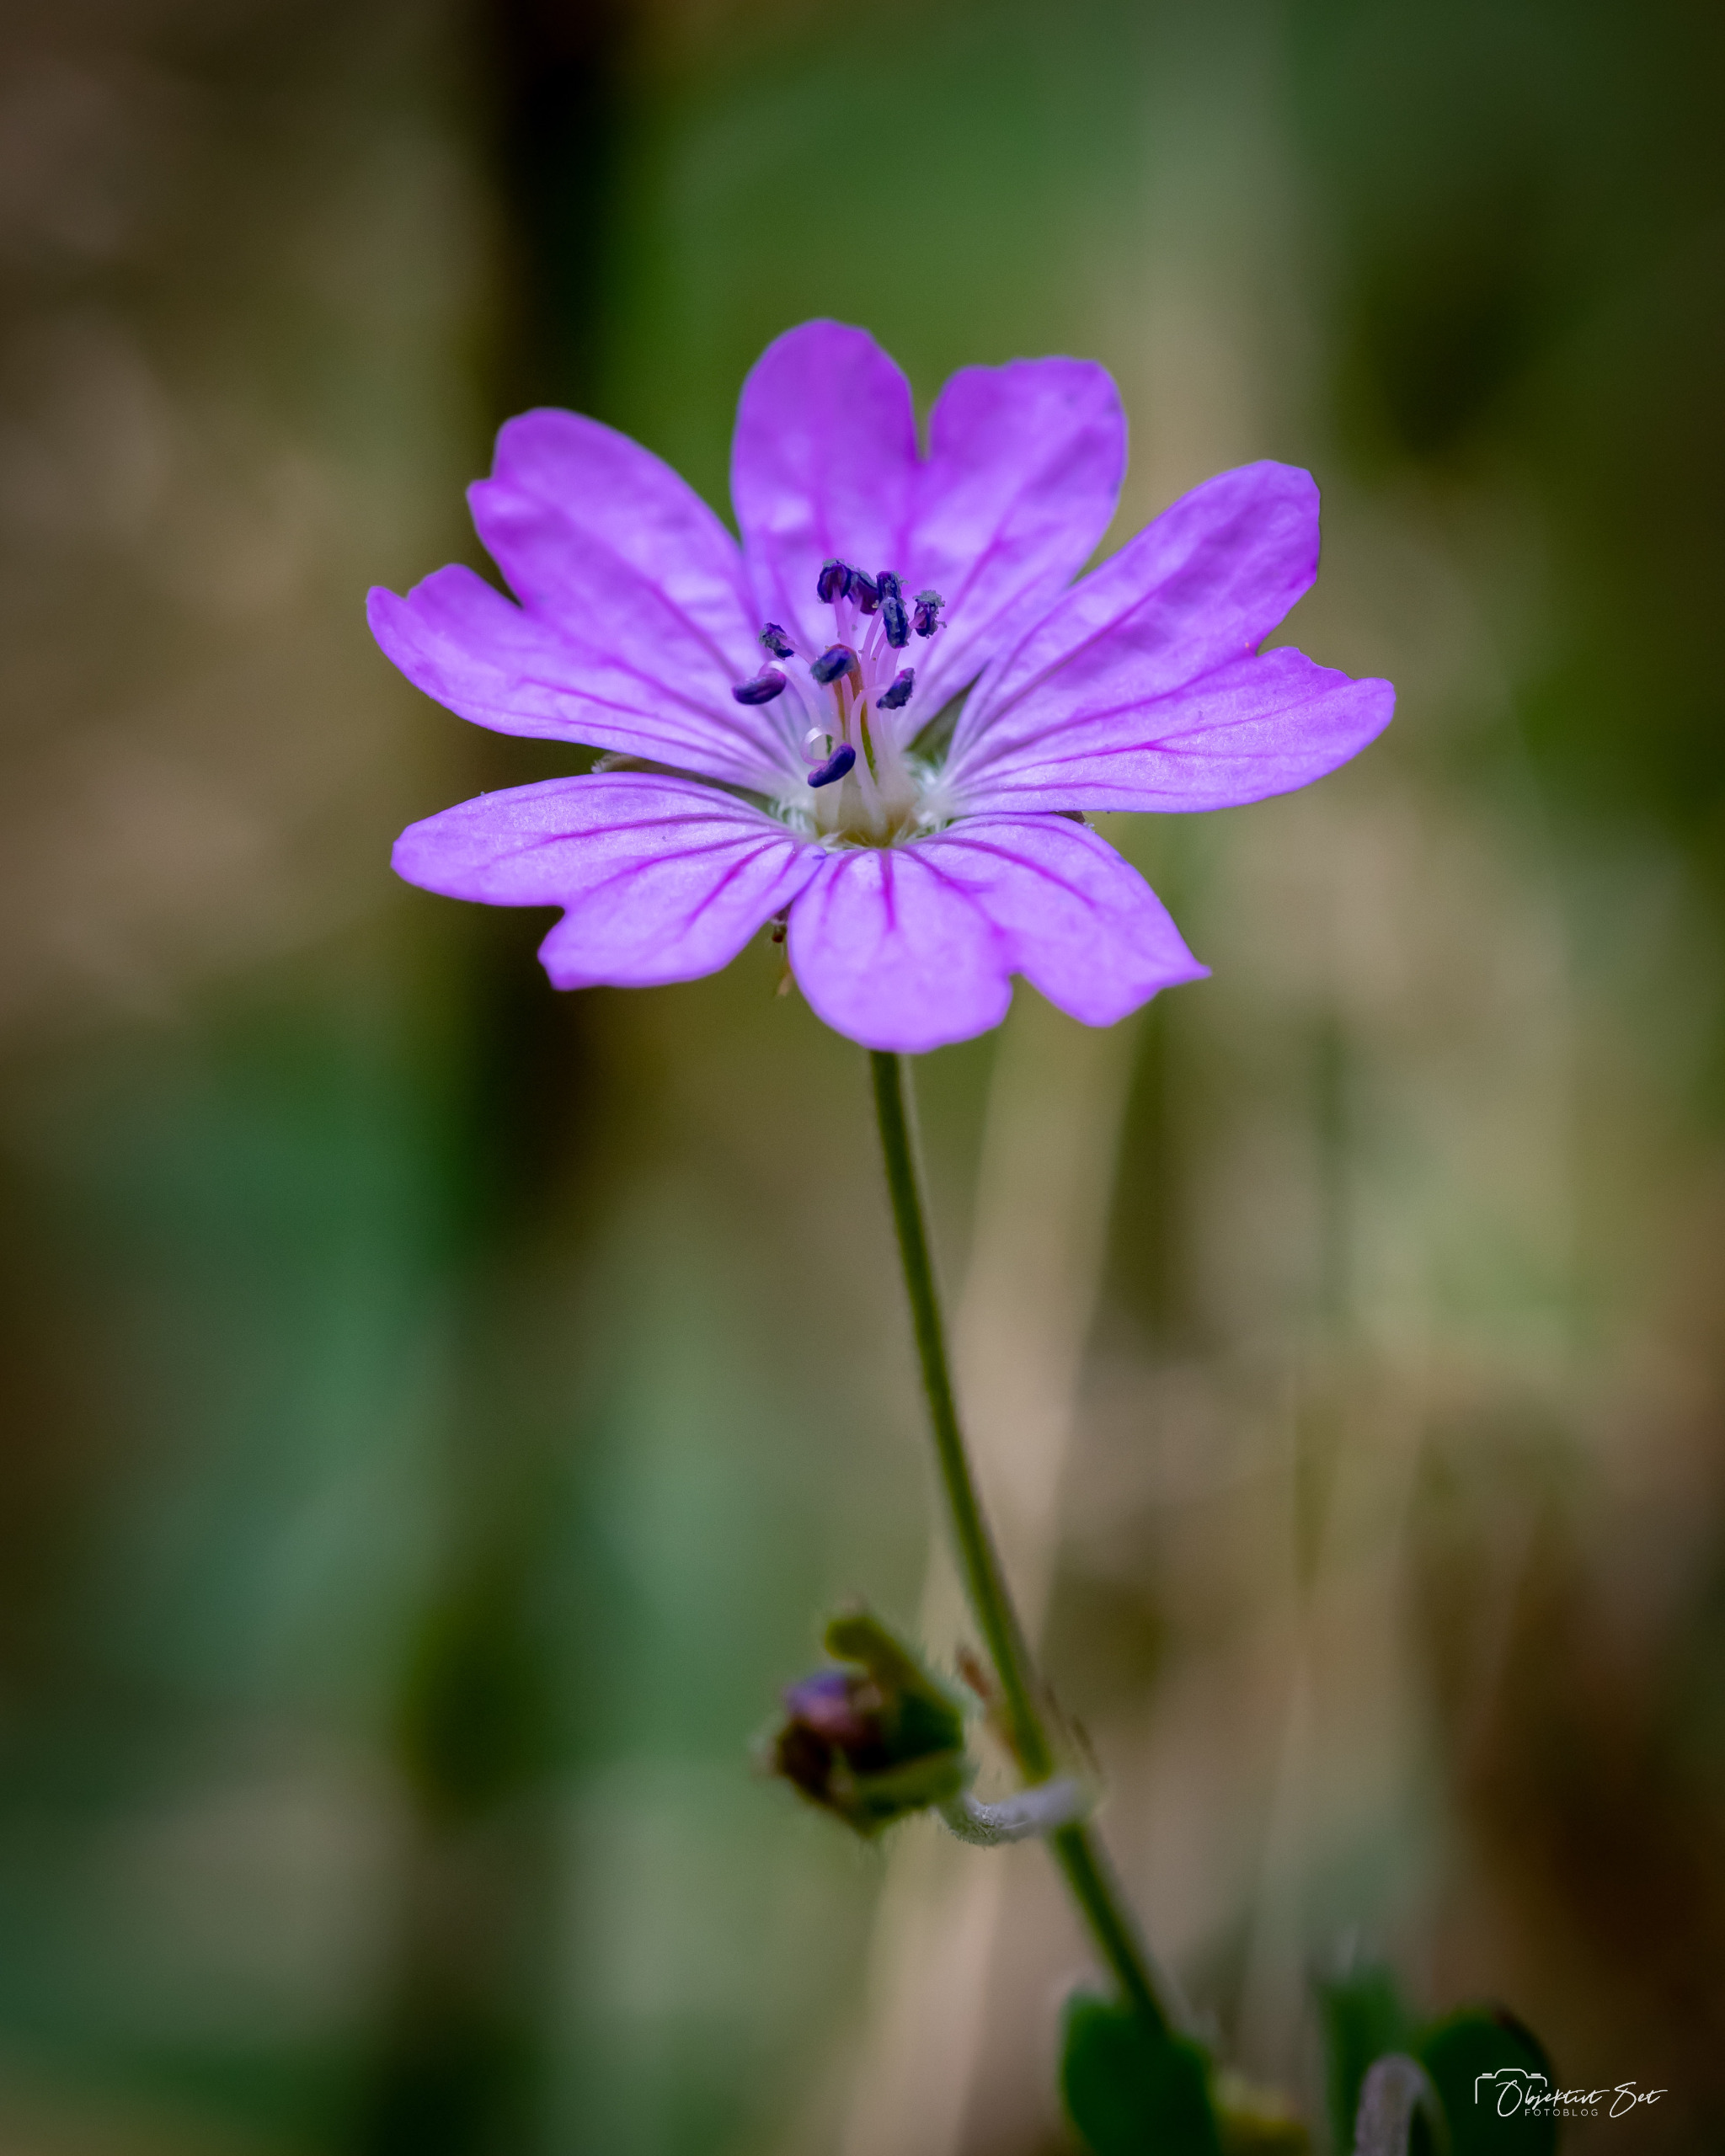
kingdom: Plantae
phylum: Tracheophyta
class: Magnoliopsida
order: Geraniales
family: Geraniaceae
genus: Geranium
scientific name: Geranium pyrenaicum
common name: Pyrenæisk storkenæb
